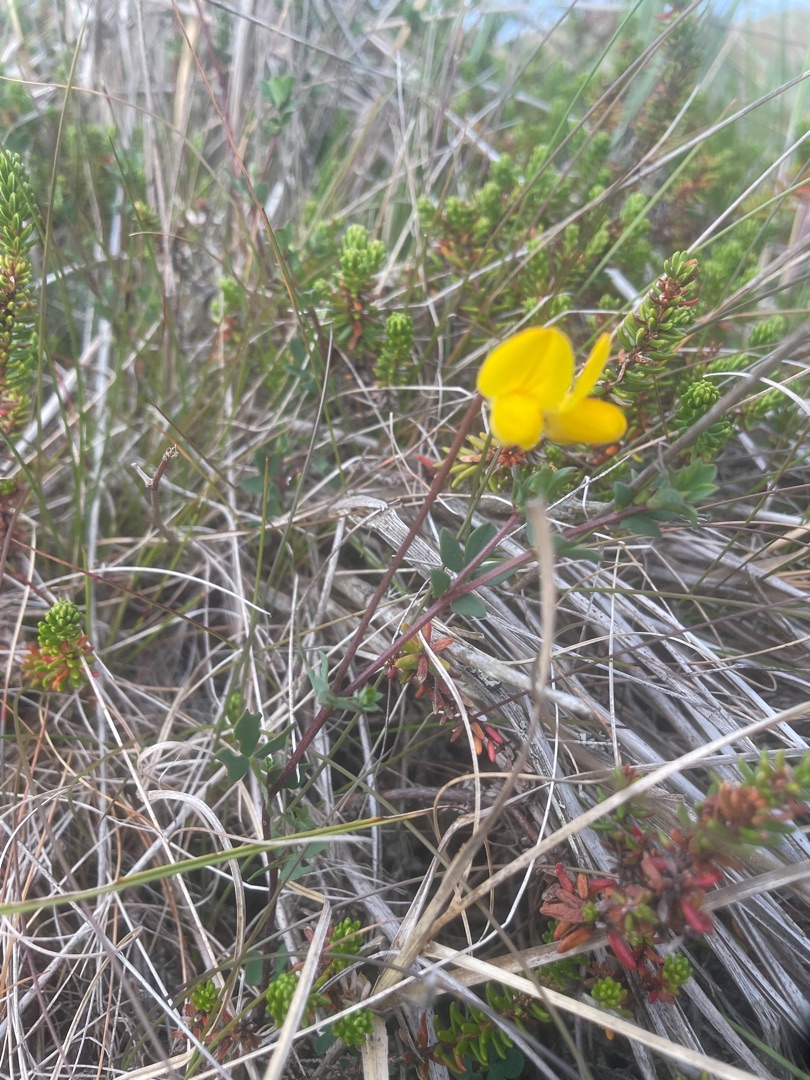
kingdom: Plantae
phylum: Tracheophyta
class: Magnoliopsida
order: Fabales
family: Fabaceae
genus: Lotus
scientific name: Lotus corniculatus
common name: Almindelig kællingetand
